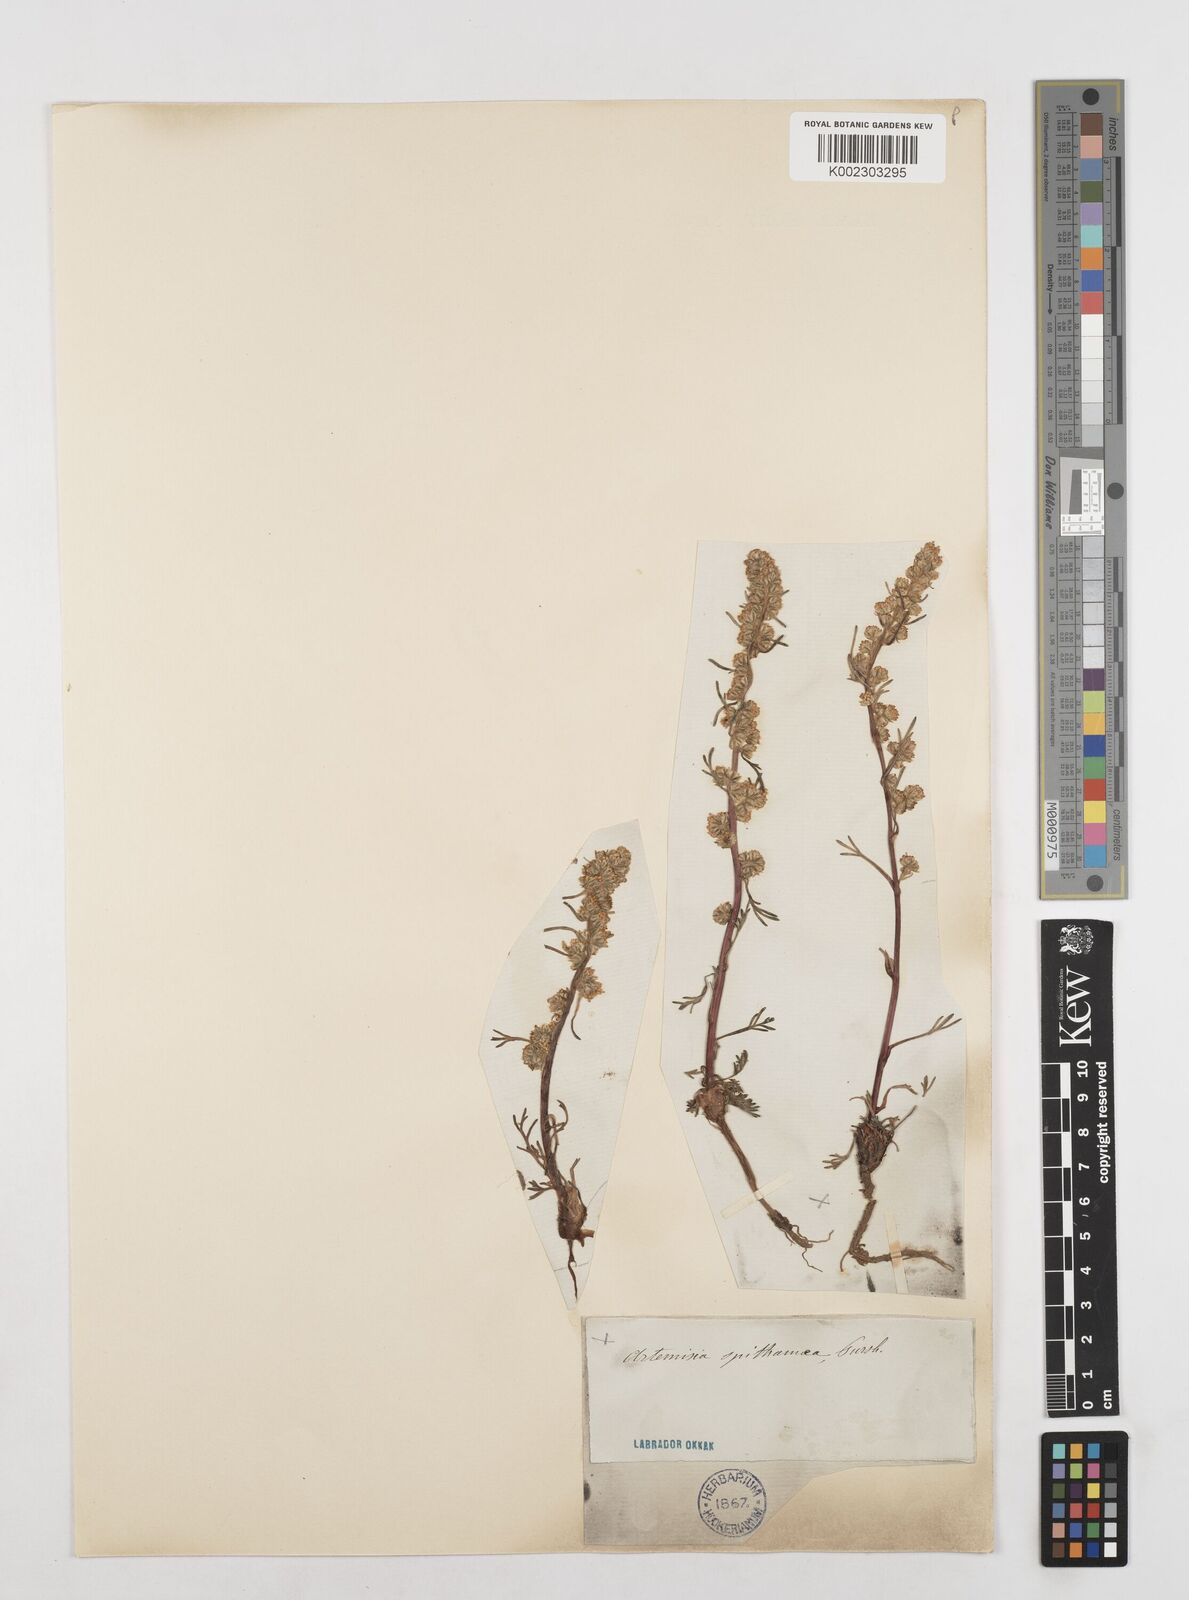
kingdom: Plantae
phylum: Tracheophyta
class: Magnoliopsida
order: Asterales
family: Asteraceae
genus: Artemisia
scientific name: Artemisia borealis
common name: Boreal sage
